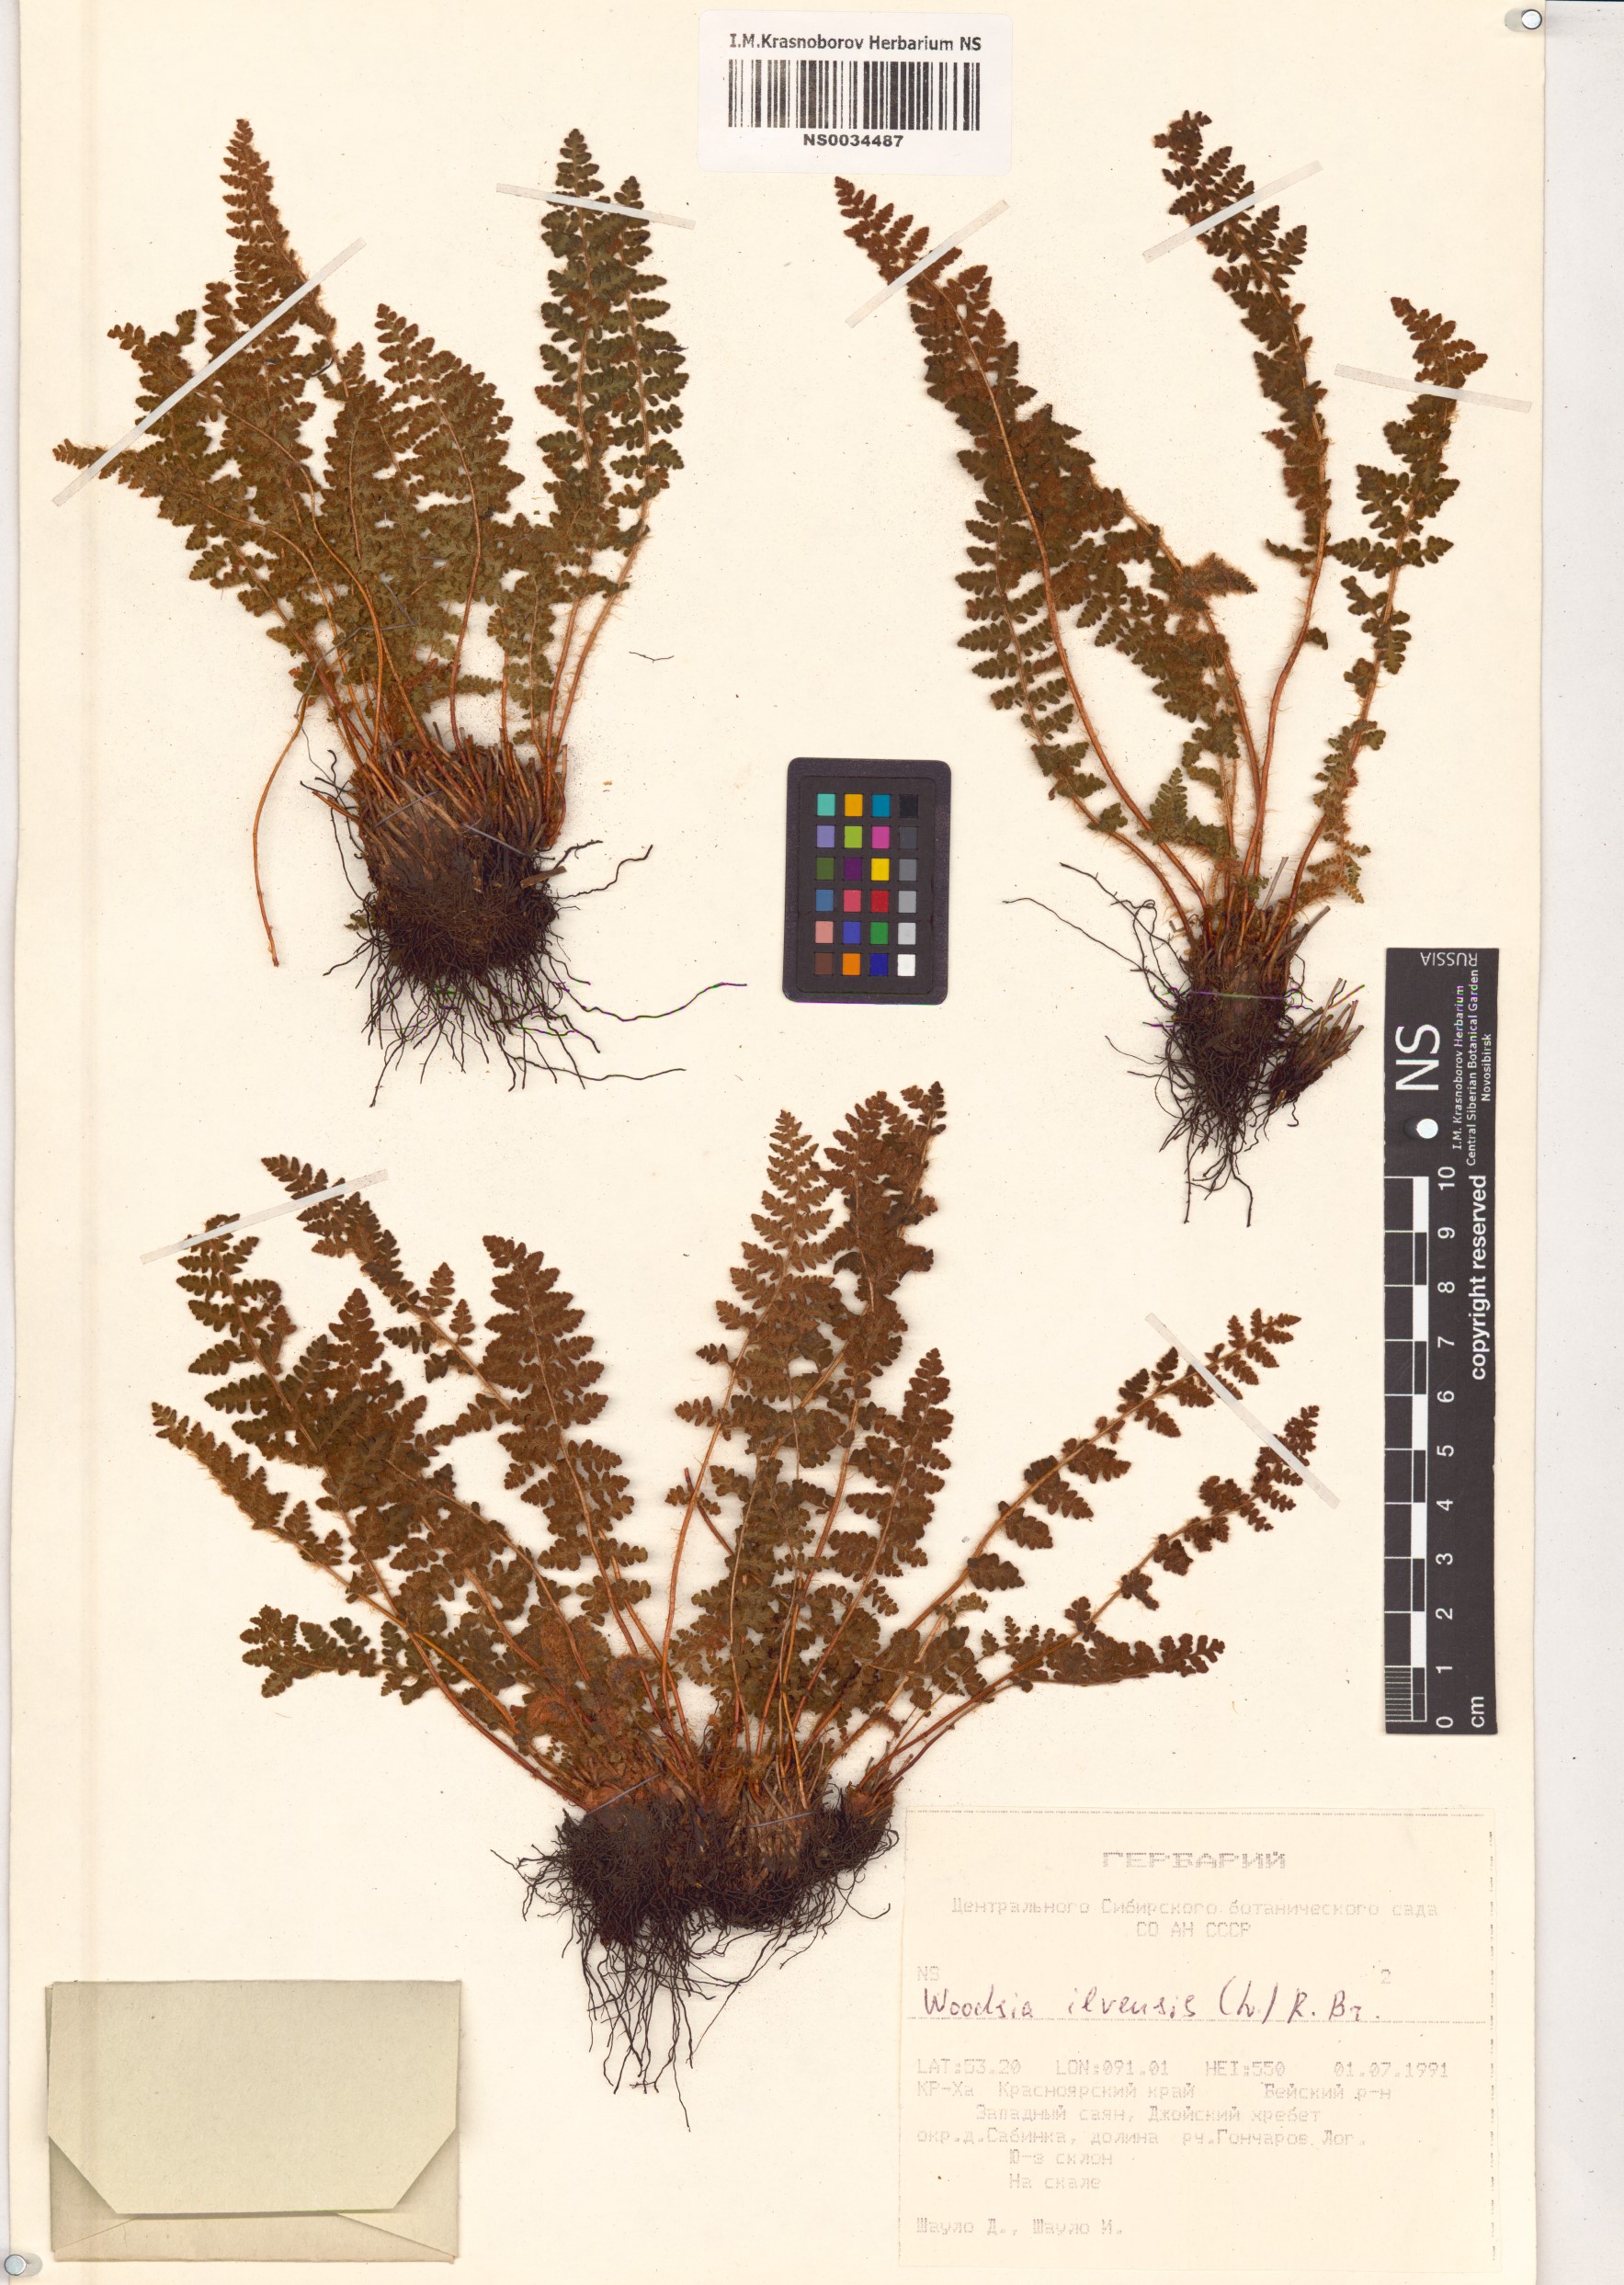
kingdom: Plantae
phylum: Tracheophyta
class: Polypodiopsida
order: Polypodiales
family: Woodsiaceae
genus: Woodsia
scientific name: Woodsia ilvensis
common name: Fragrant woodsia
